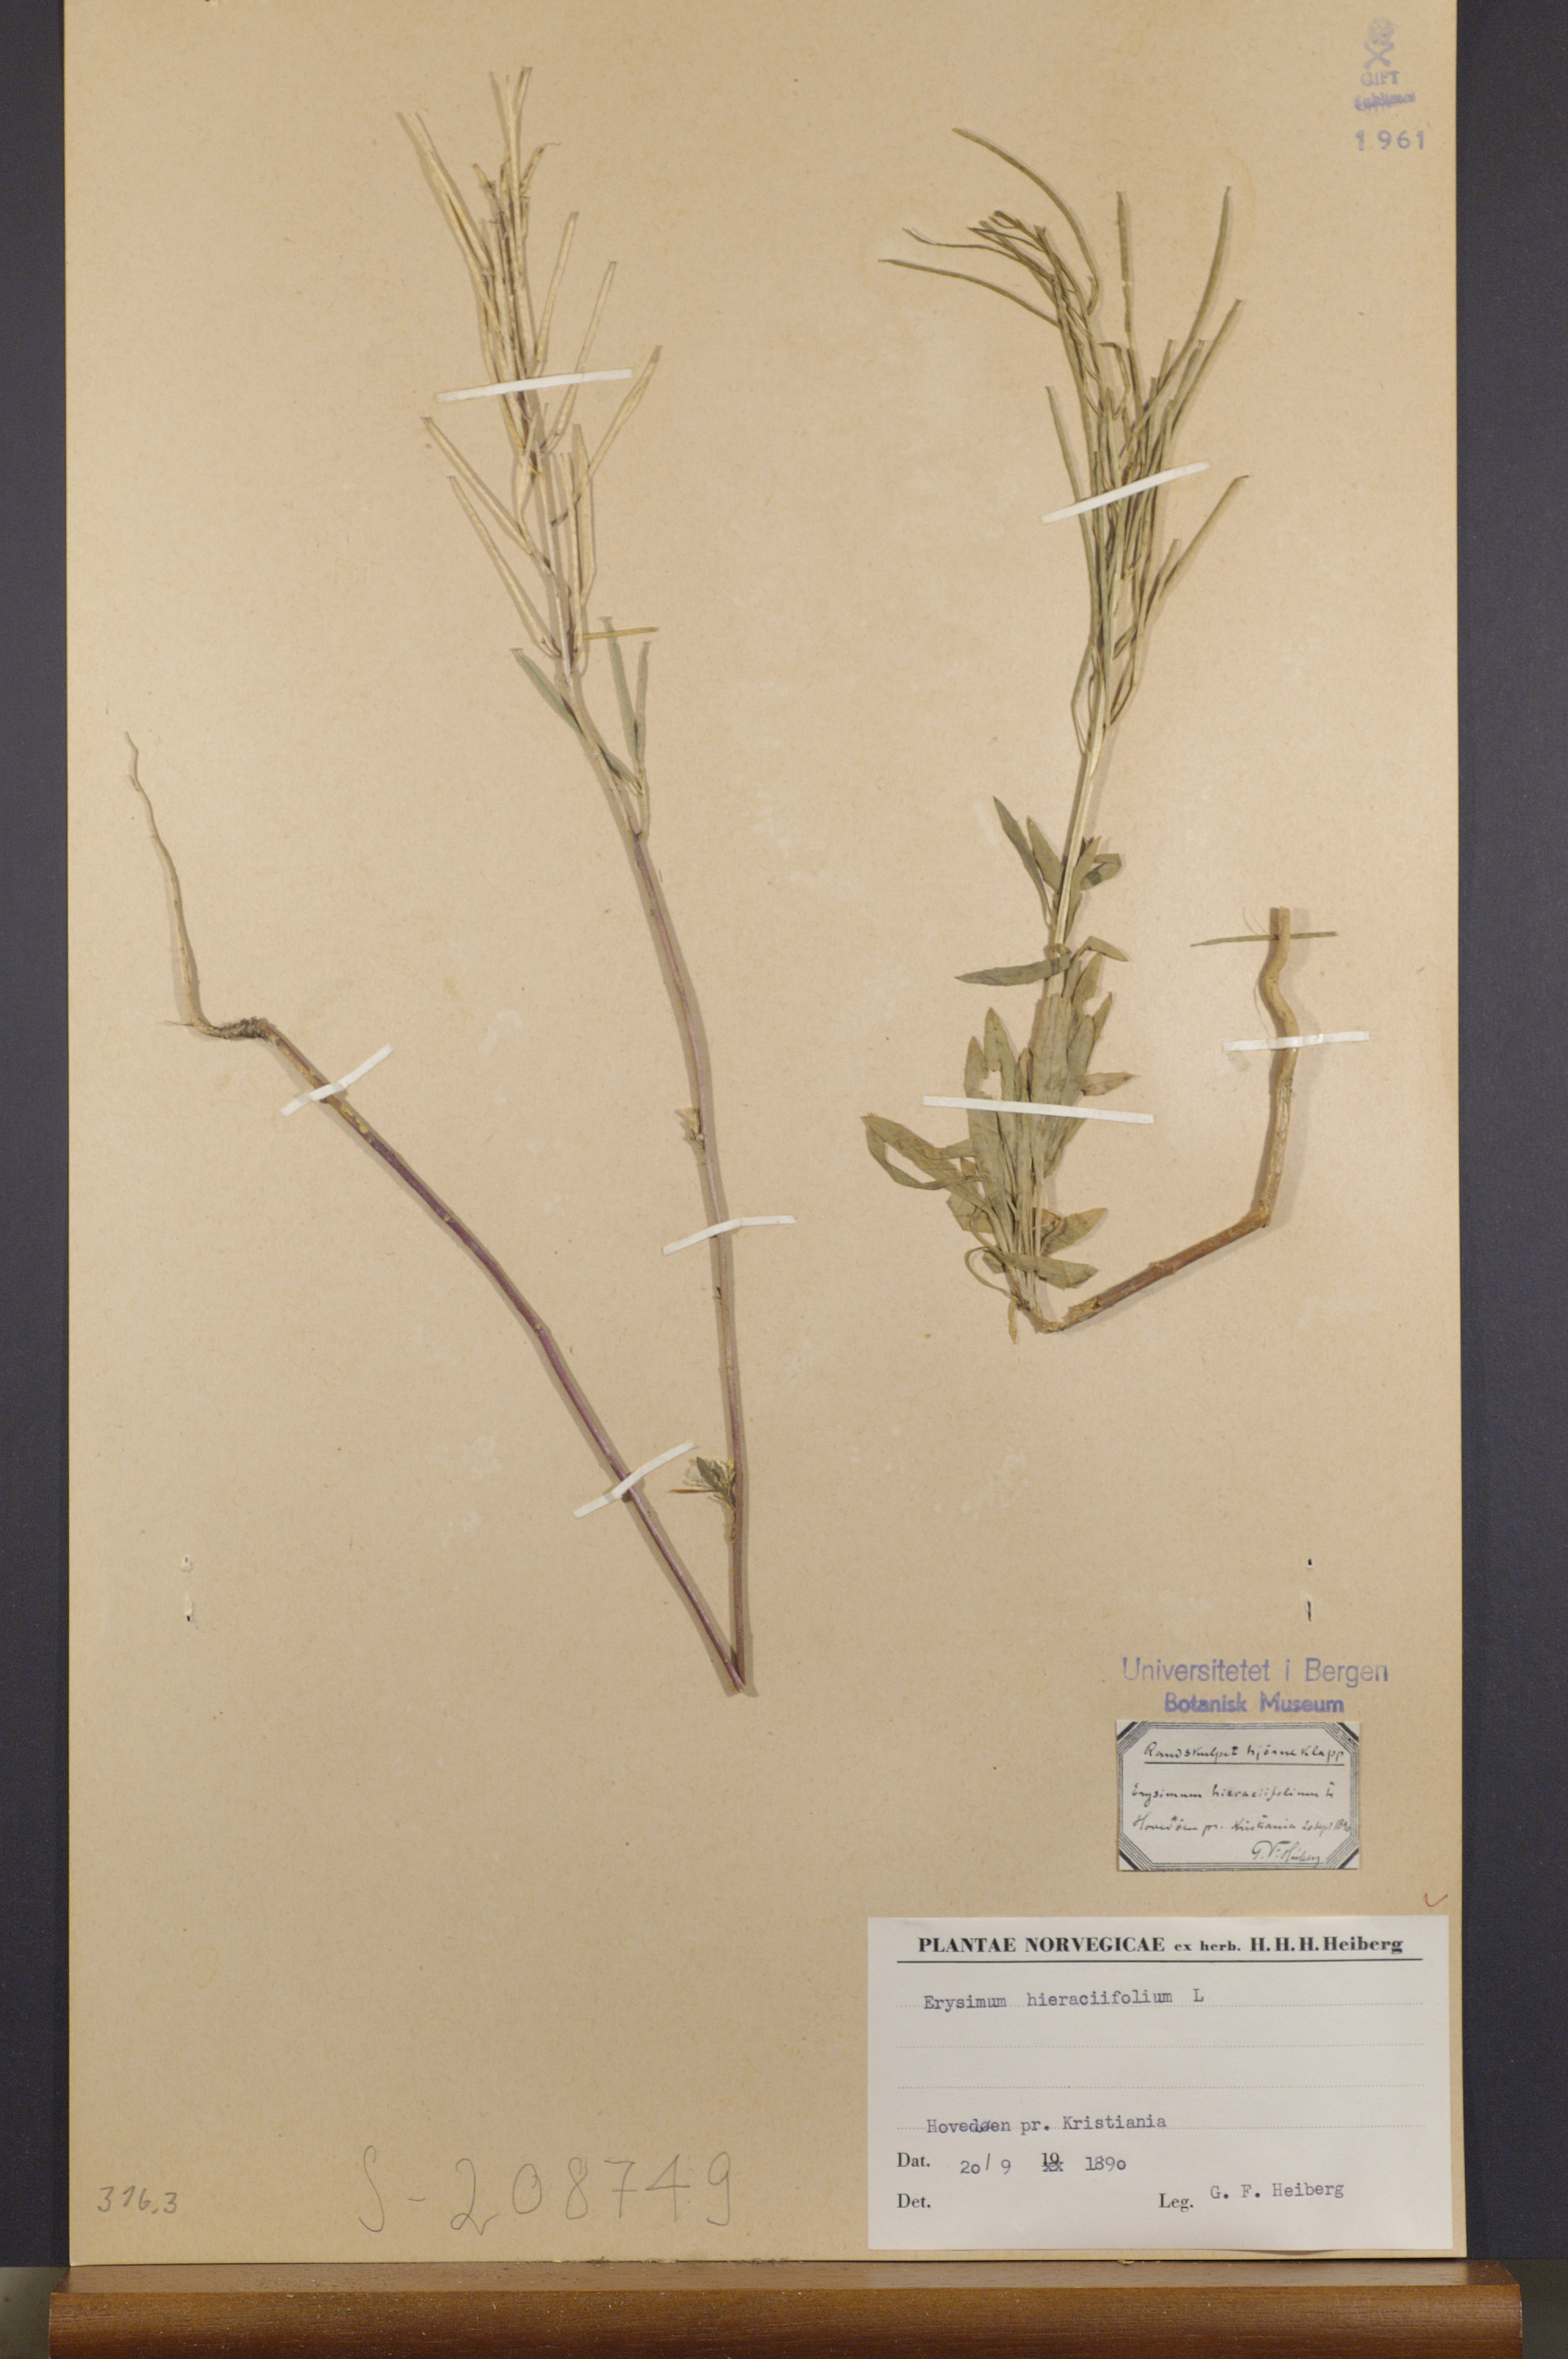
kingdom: Plantae
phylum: Tracheophyta
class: Magnoliopsida
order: Brassicales
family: Brassicaceae
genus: Erysimum
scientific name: Erysimum hieraciifolium
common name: European wallflower
